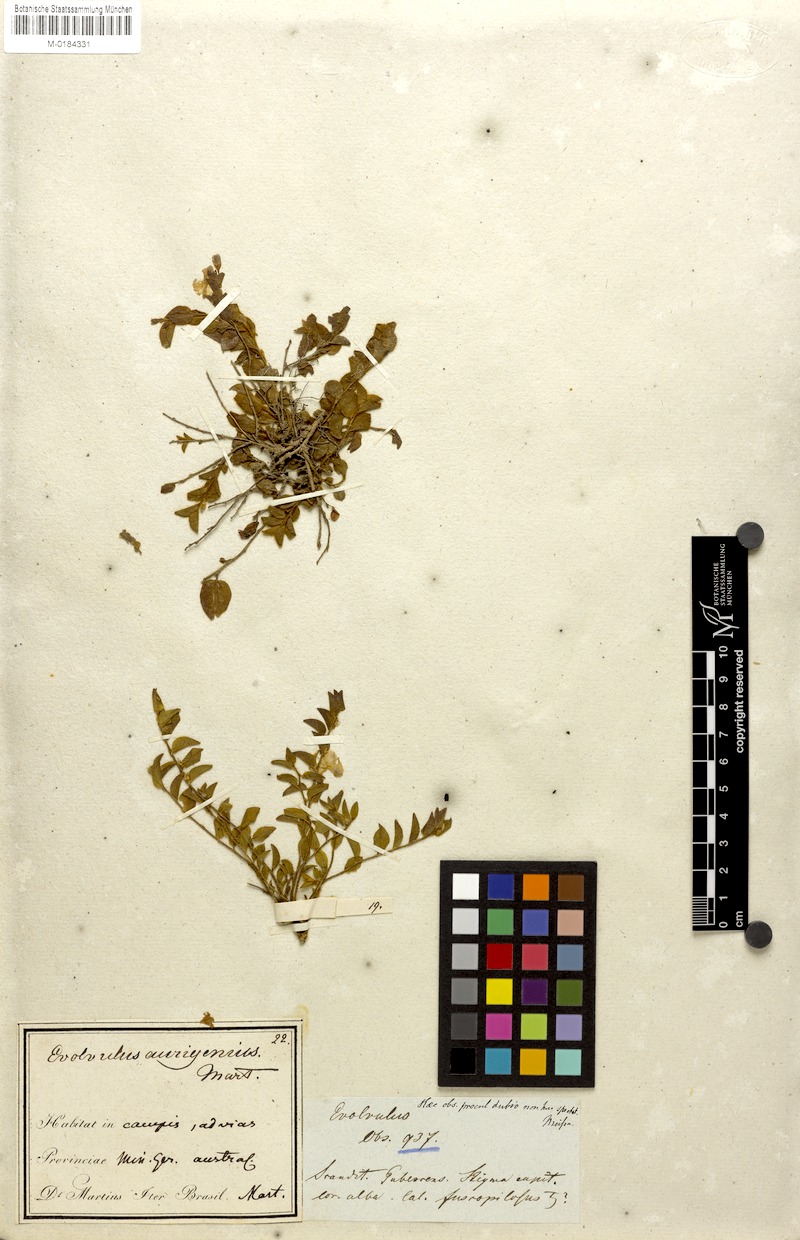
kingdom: Plantae
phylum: Tracheophyta
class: Magnoliopsida
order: Solanales
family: Convolvulaceae
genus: Evolvulus
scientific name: Evolvulus aurigenius
